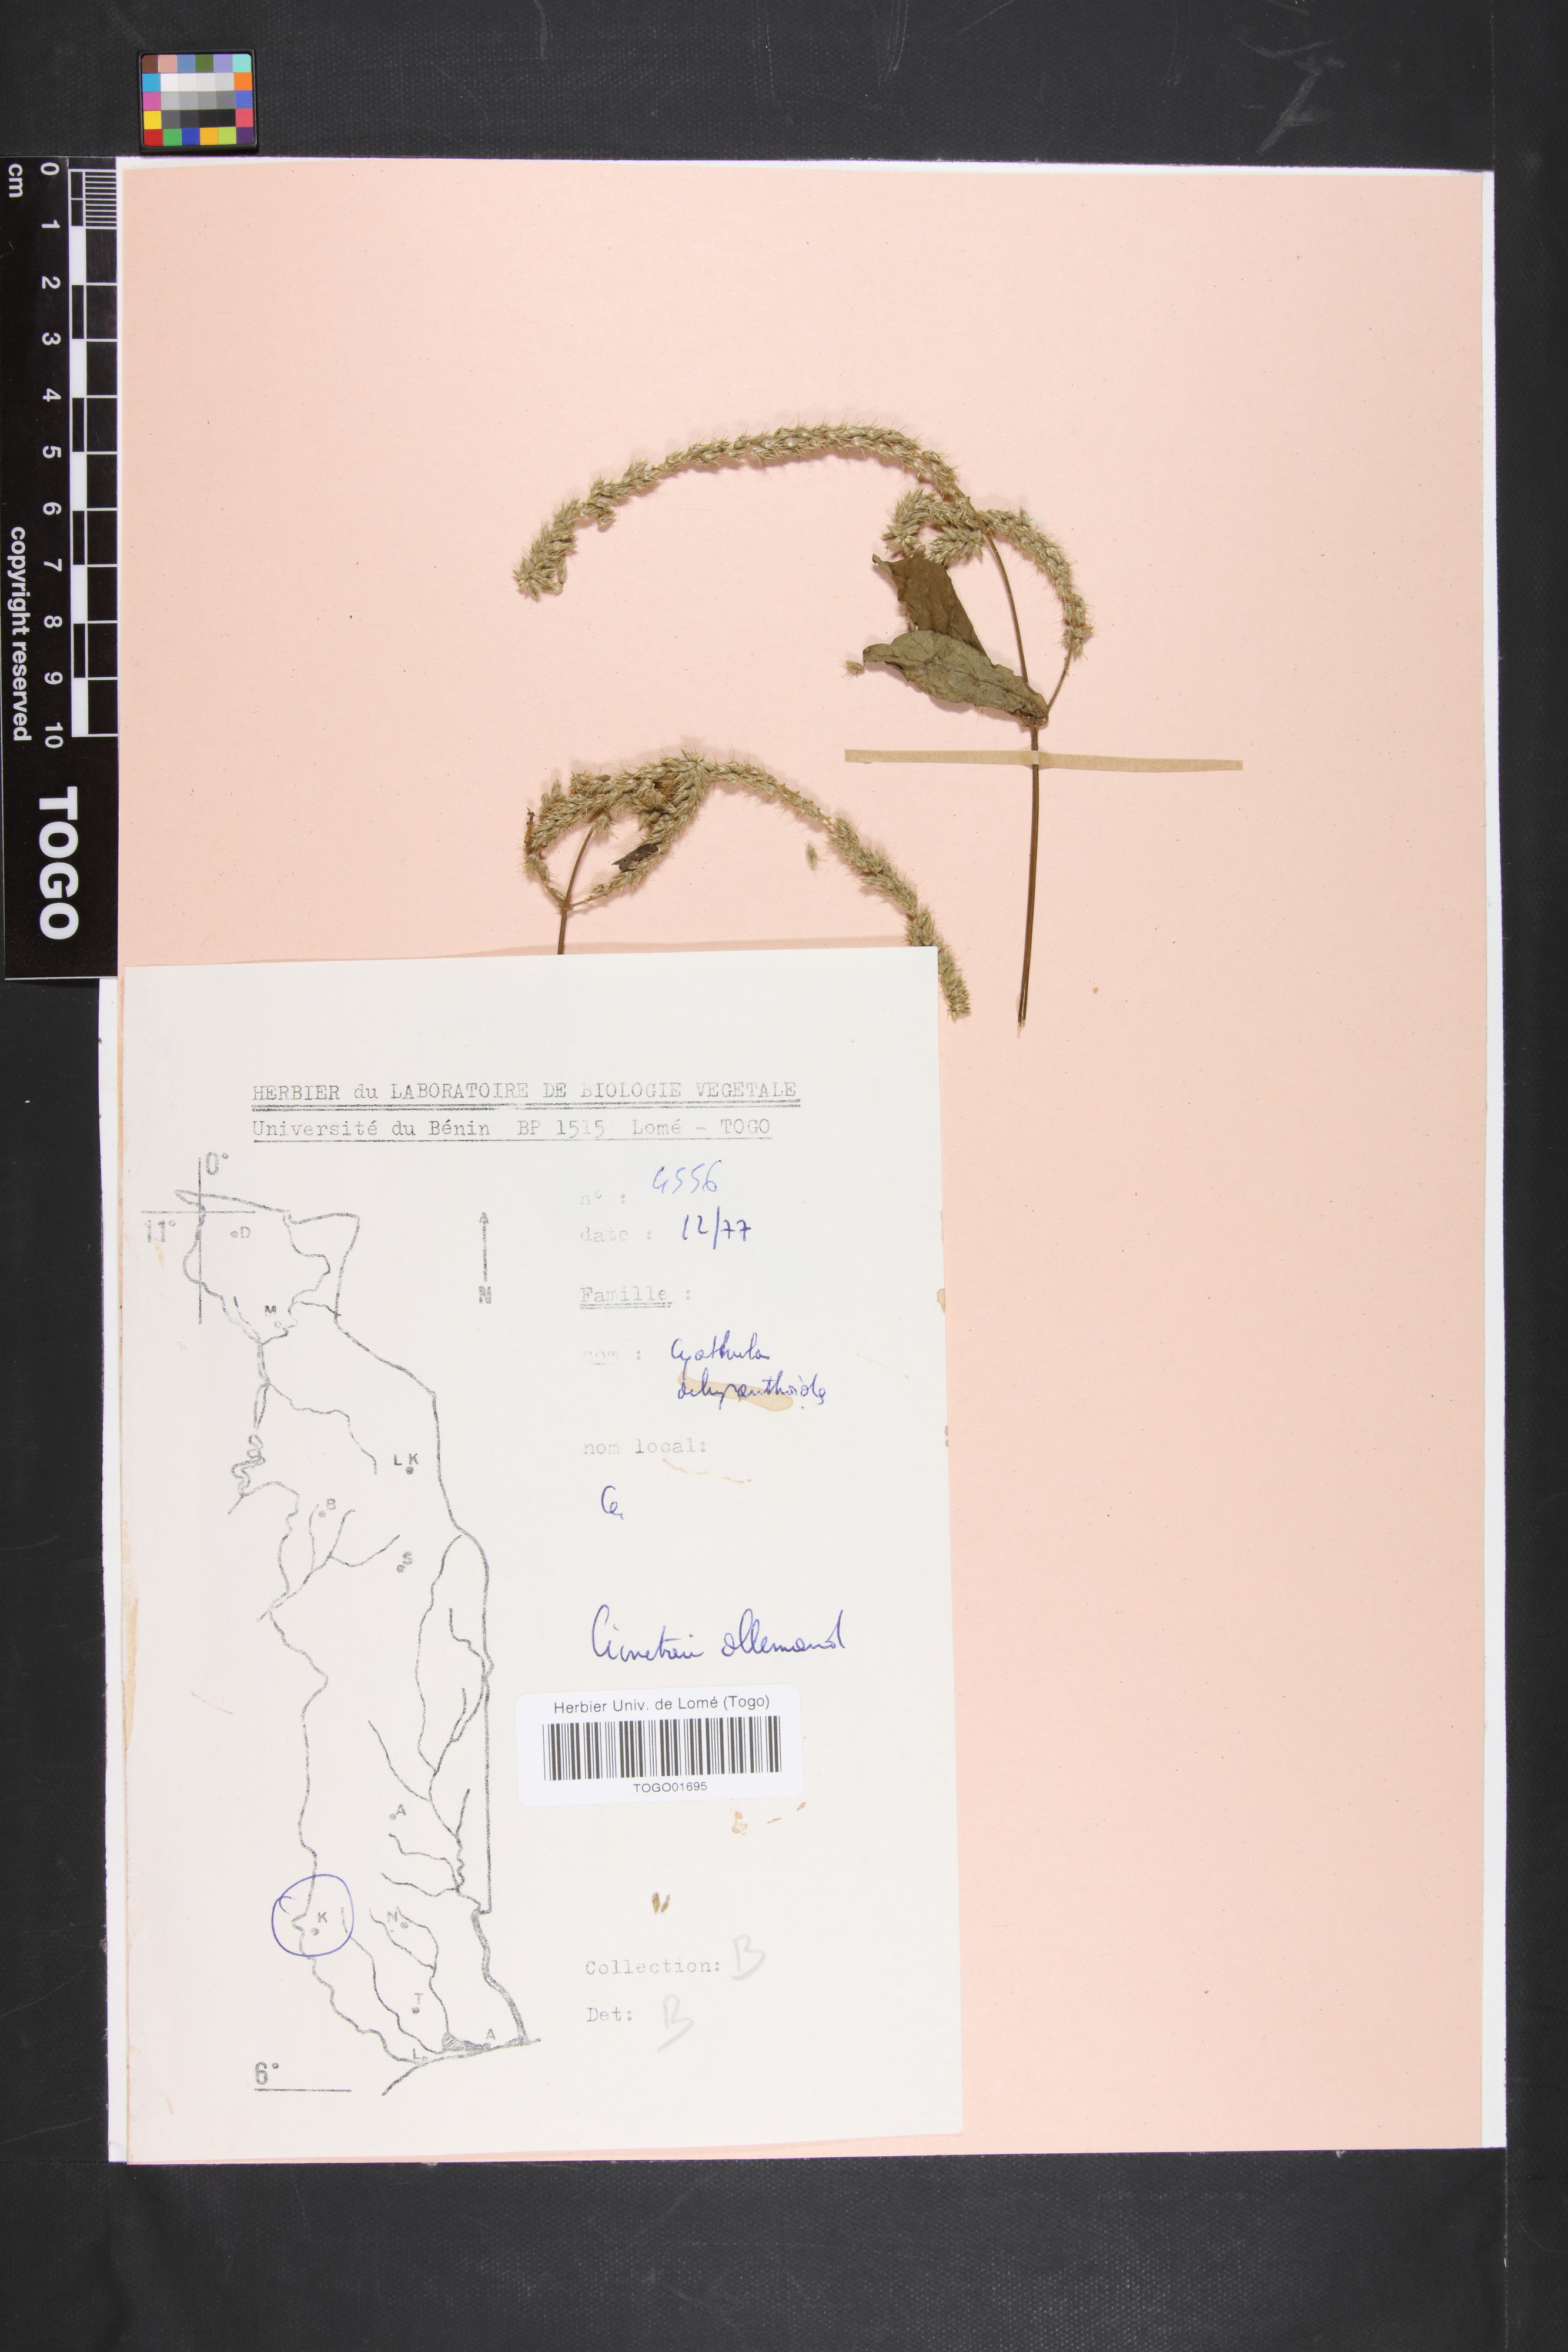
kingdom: Plantae
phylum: Tracheophyta
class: Magnoliopsida
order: Caryophyllales
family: Amaranthaceae
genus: Cyathula
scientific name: Cyathula achyranthoides
